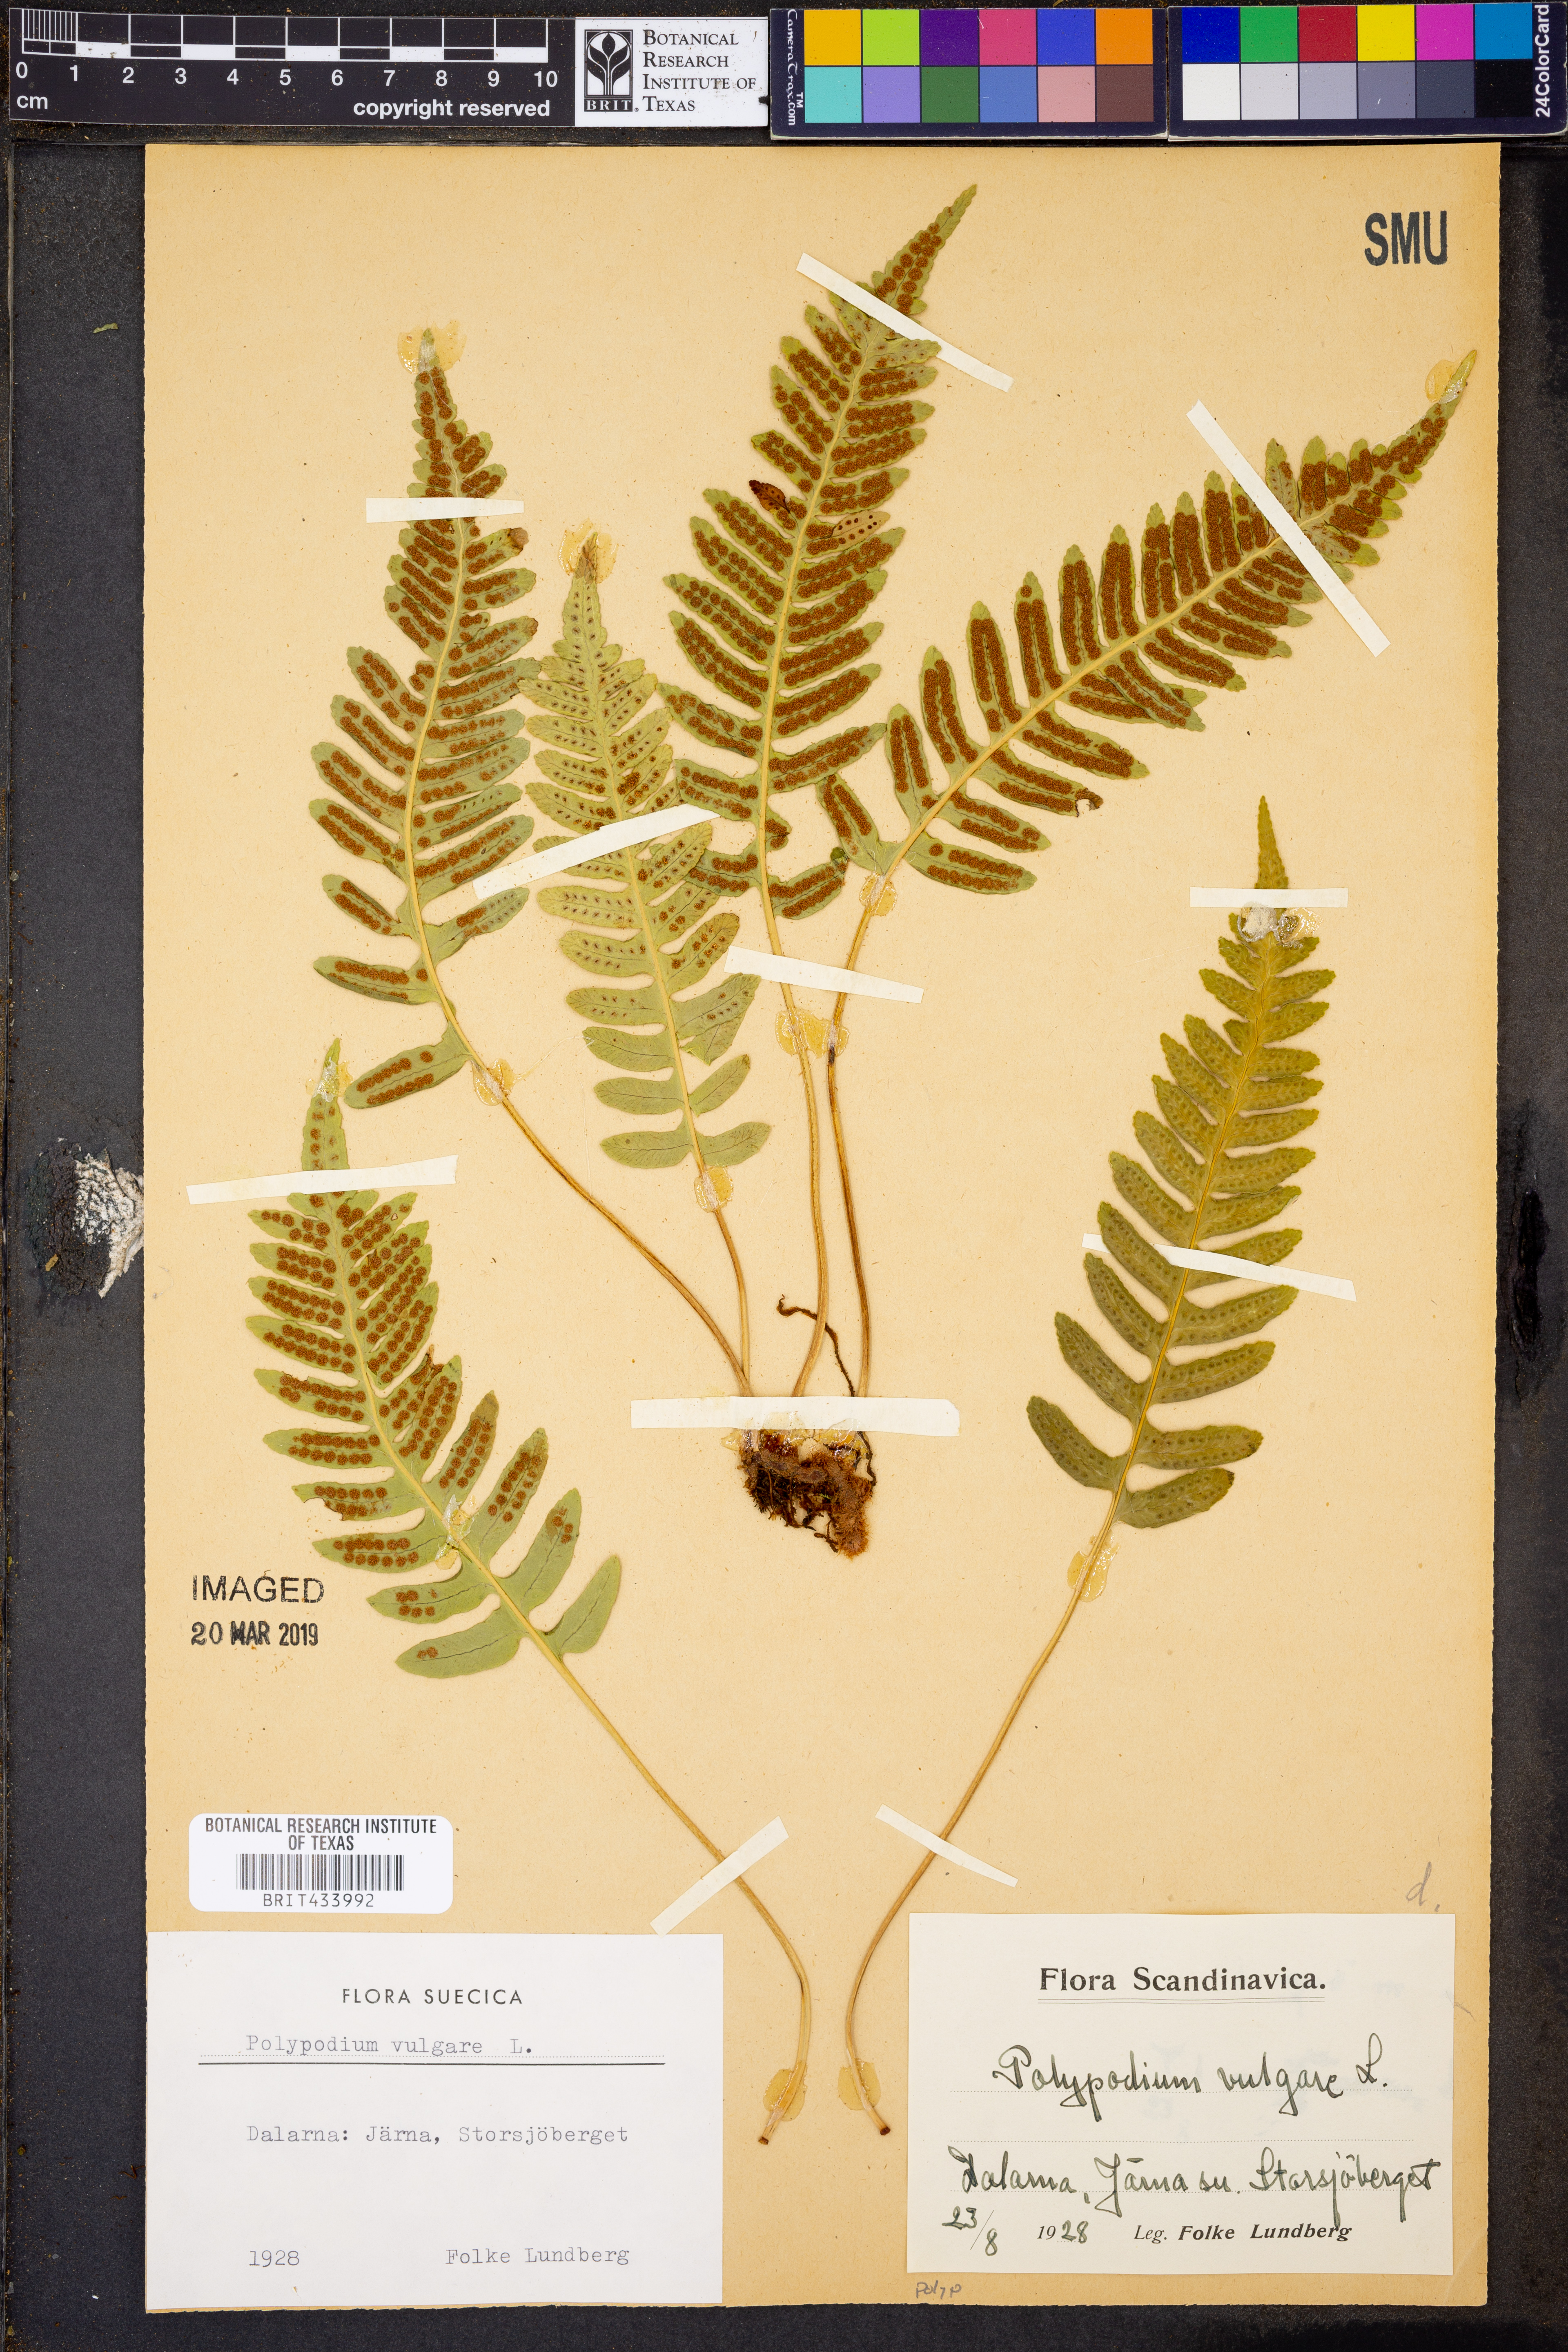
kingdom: Plantae
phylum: Tracheophyta
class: Polypodiopsida
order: Polypodiales
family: Polypodiaceae
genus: Polypodium
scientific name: Polypodium vulgare
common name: Common polypody
